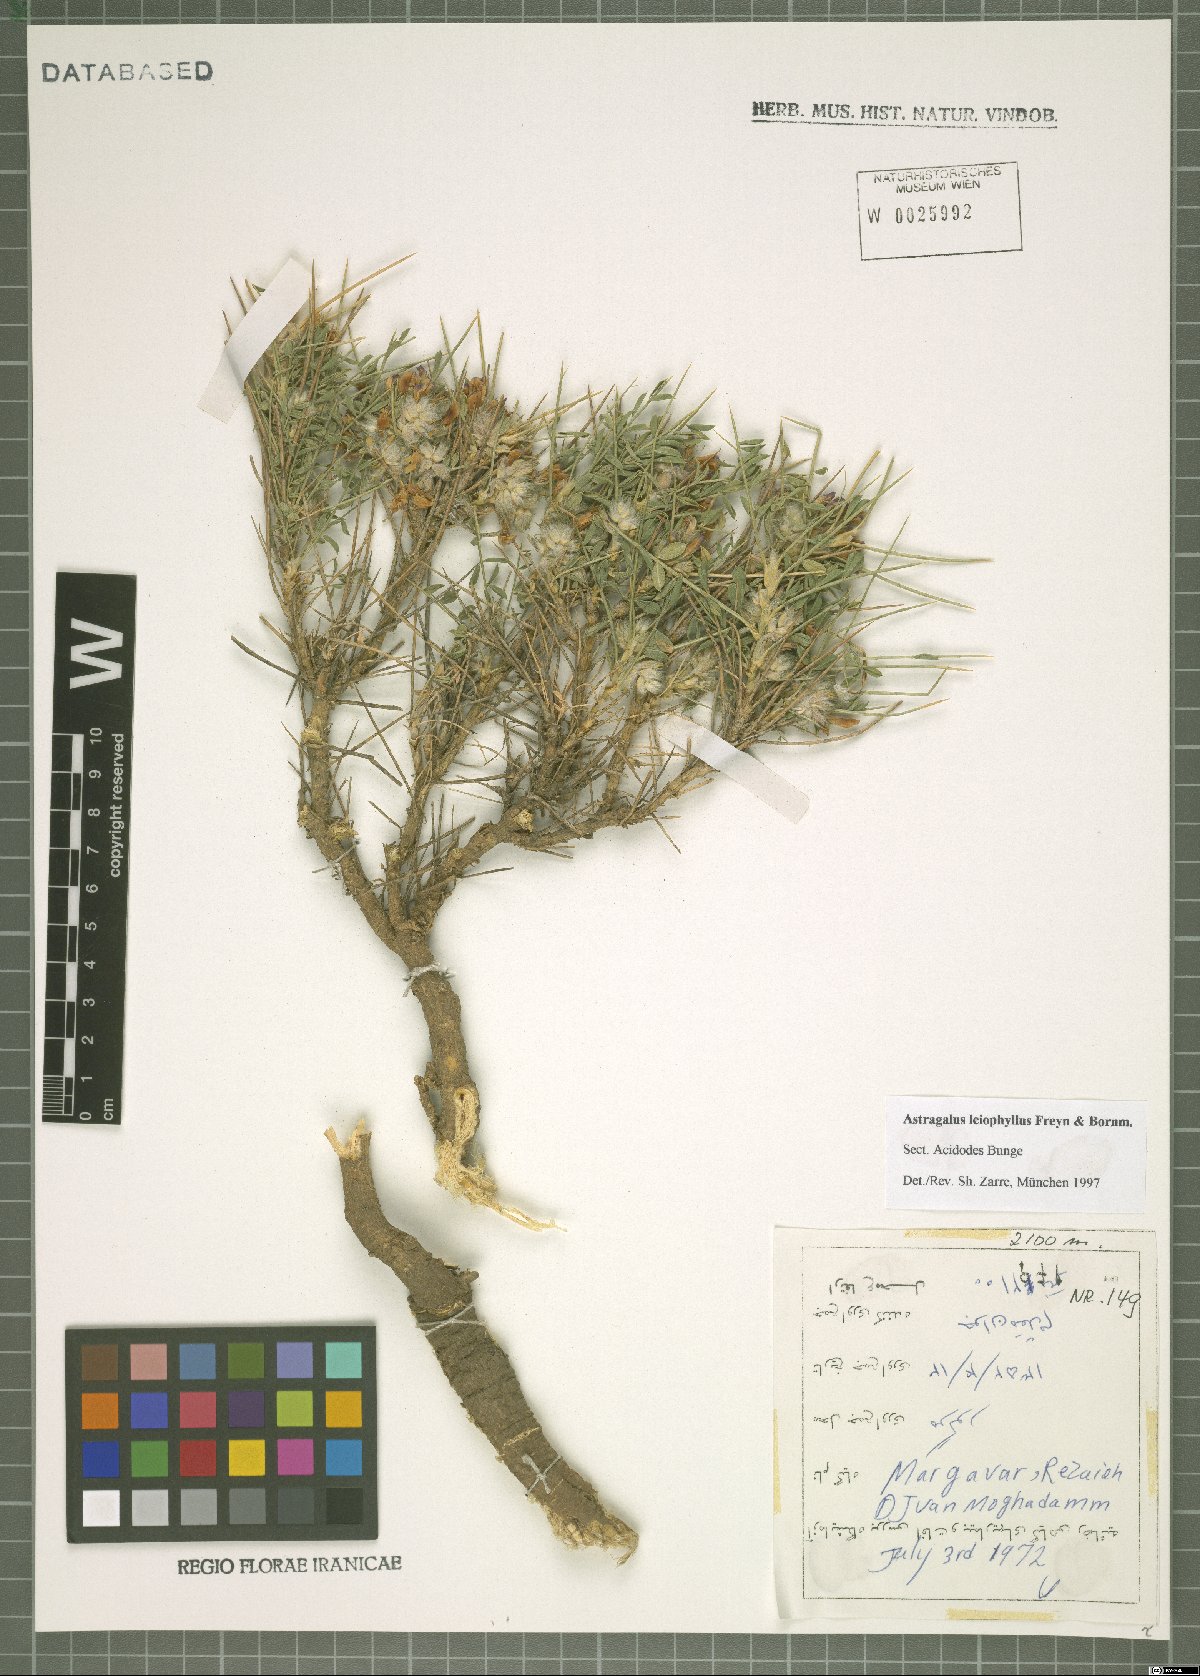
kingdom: Plantae
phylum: Tracheophyta
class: Magnoliopsida
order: Fabales
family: Fabaceae
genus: Astragalus
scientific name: Astragalus leiophyllus
